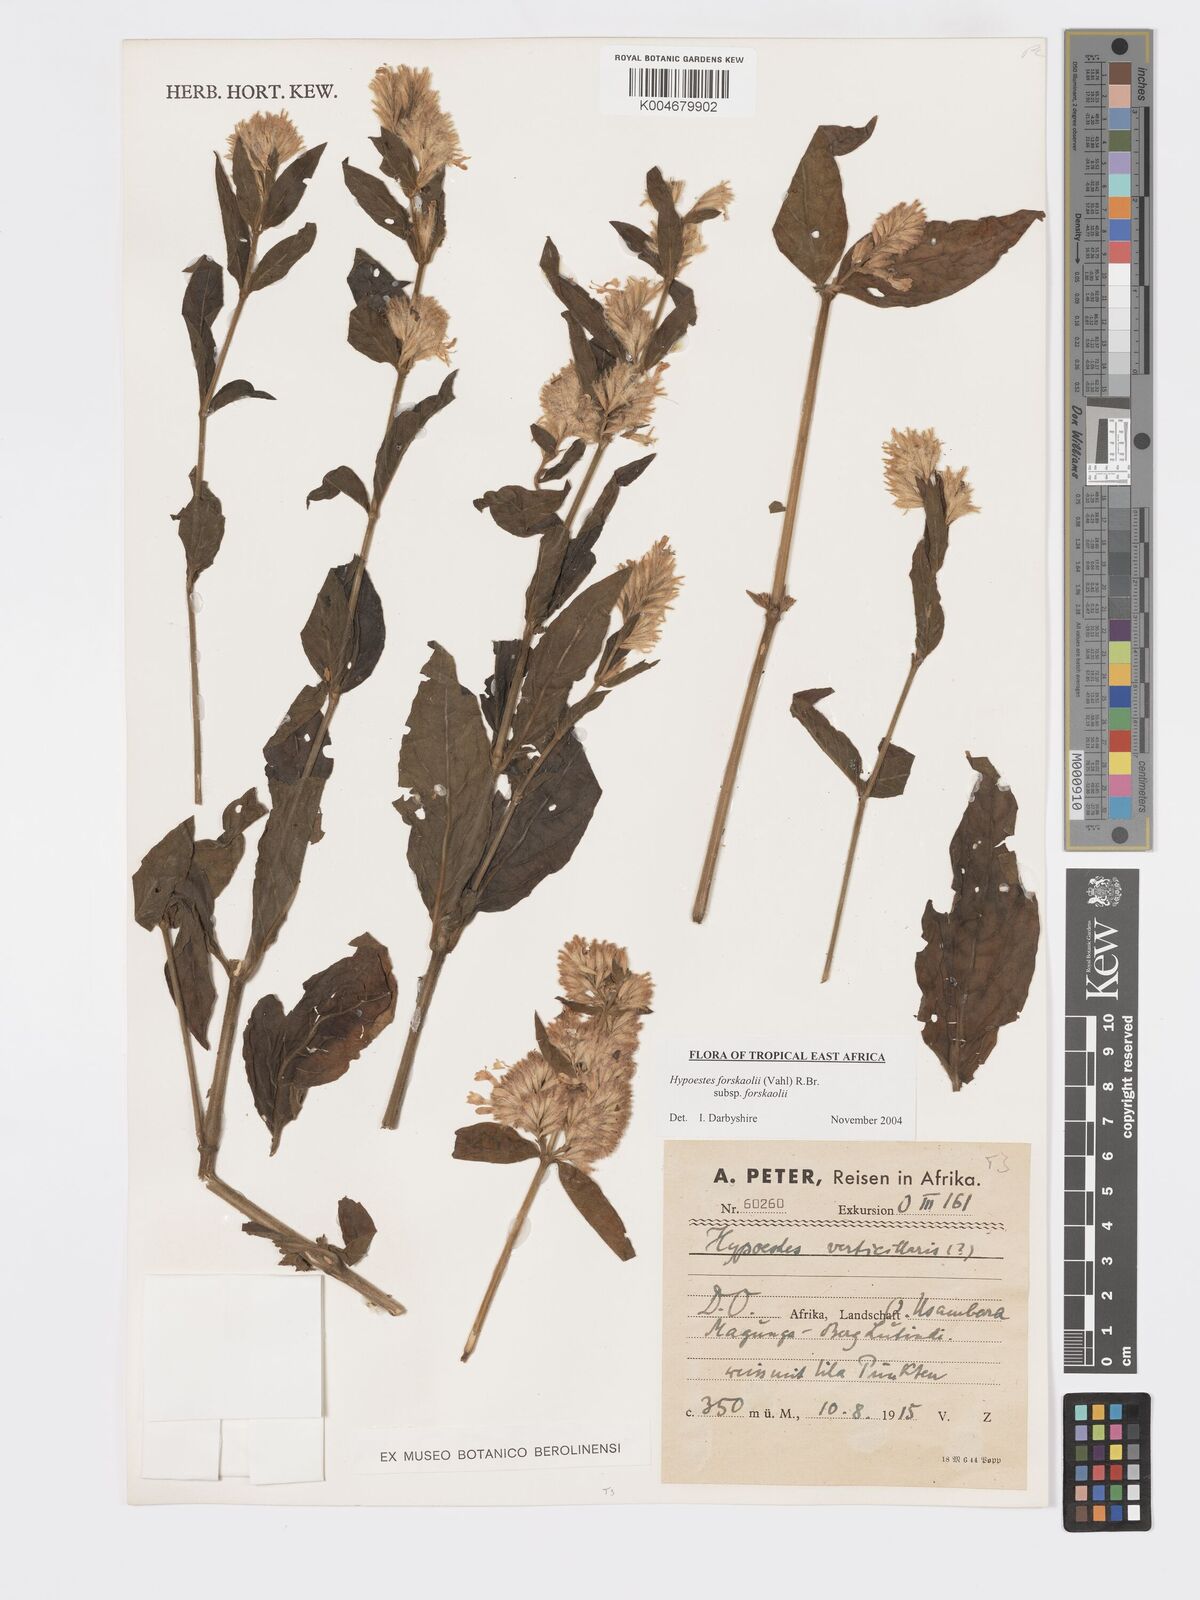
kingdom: Plantae
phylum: Tracheophyta
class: Magnoliopsida
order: Lamiales
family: Acanthaceae
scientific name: Acanthaceae
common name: Acanthaceae
